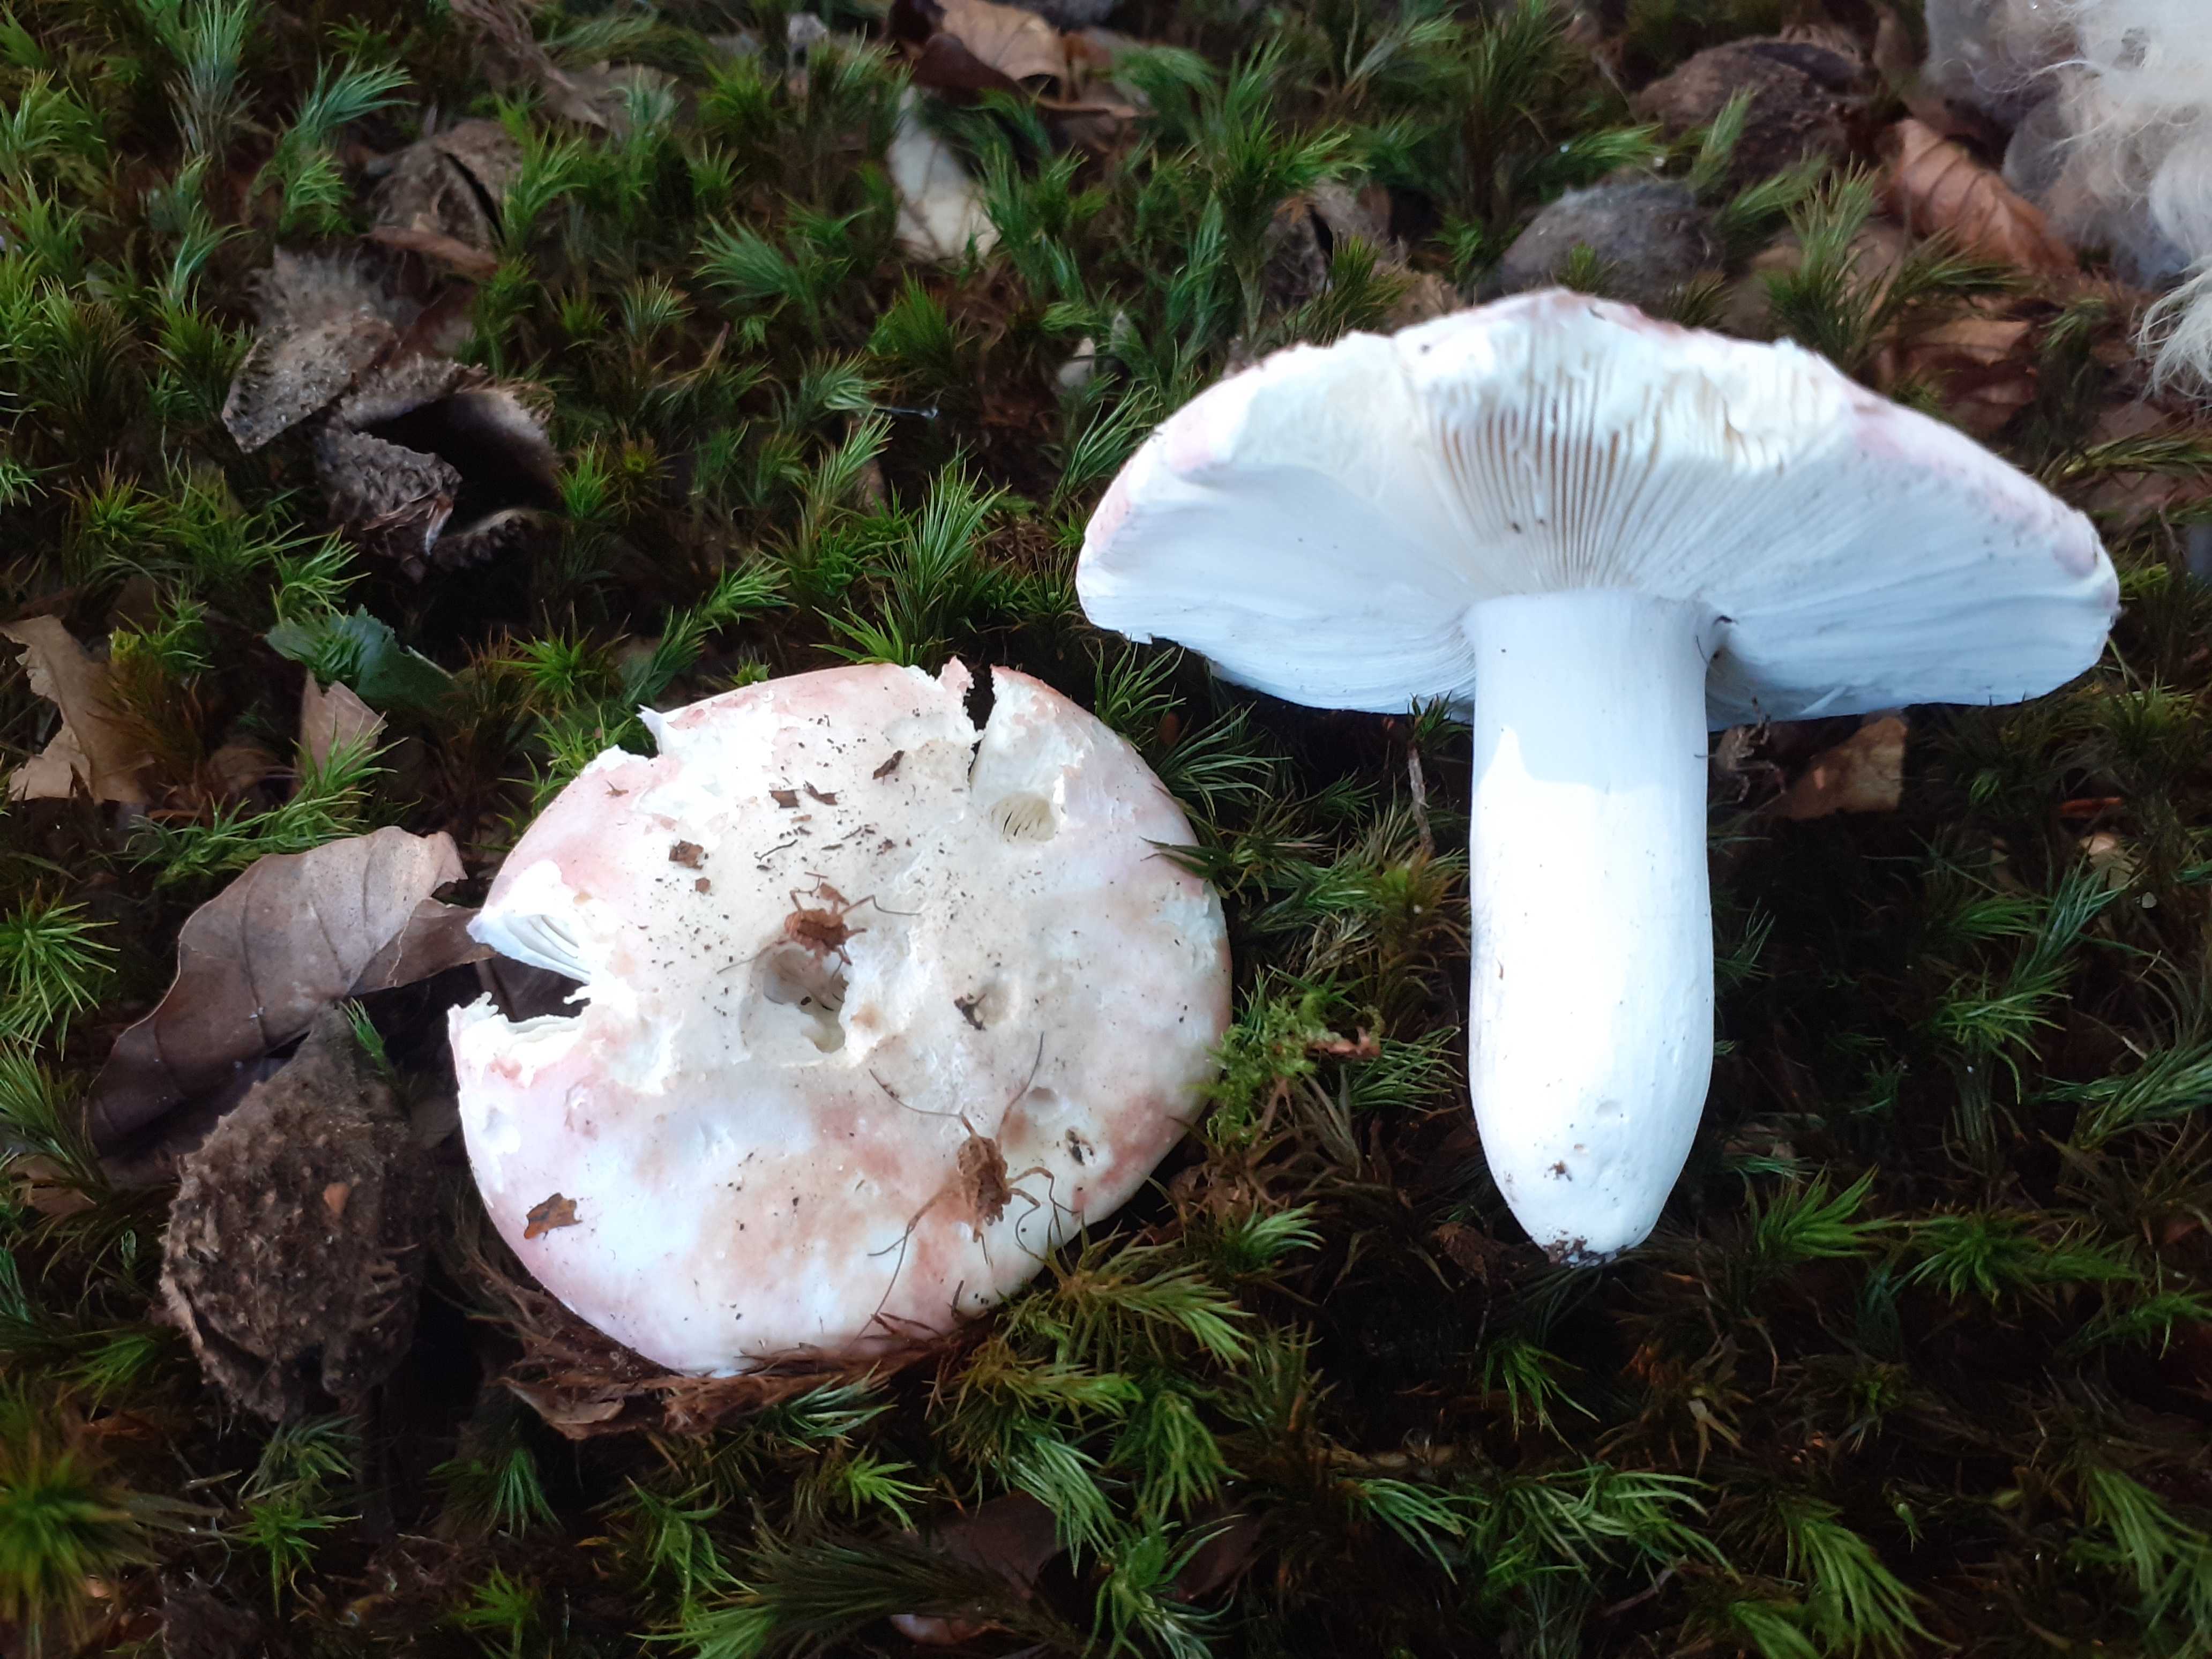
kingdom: Fungi
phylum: Basidiomycota
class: Agaricomycetes
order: Russulales
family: Russulaceae
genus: Russula
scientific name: Russula aurora
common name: rosa skørhat
